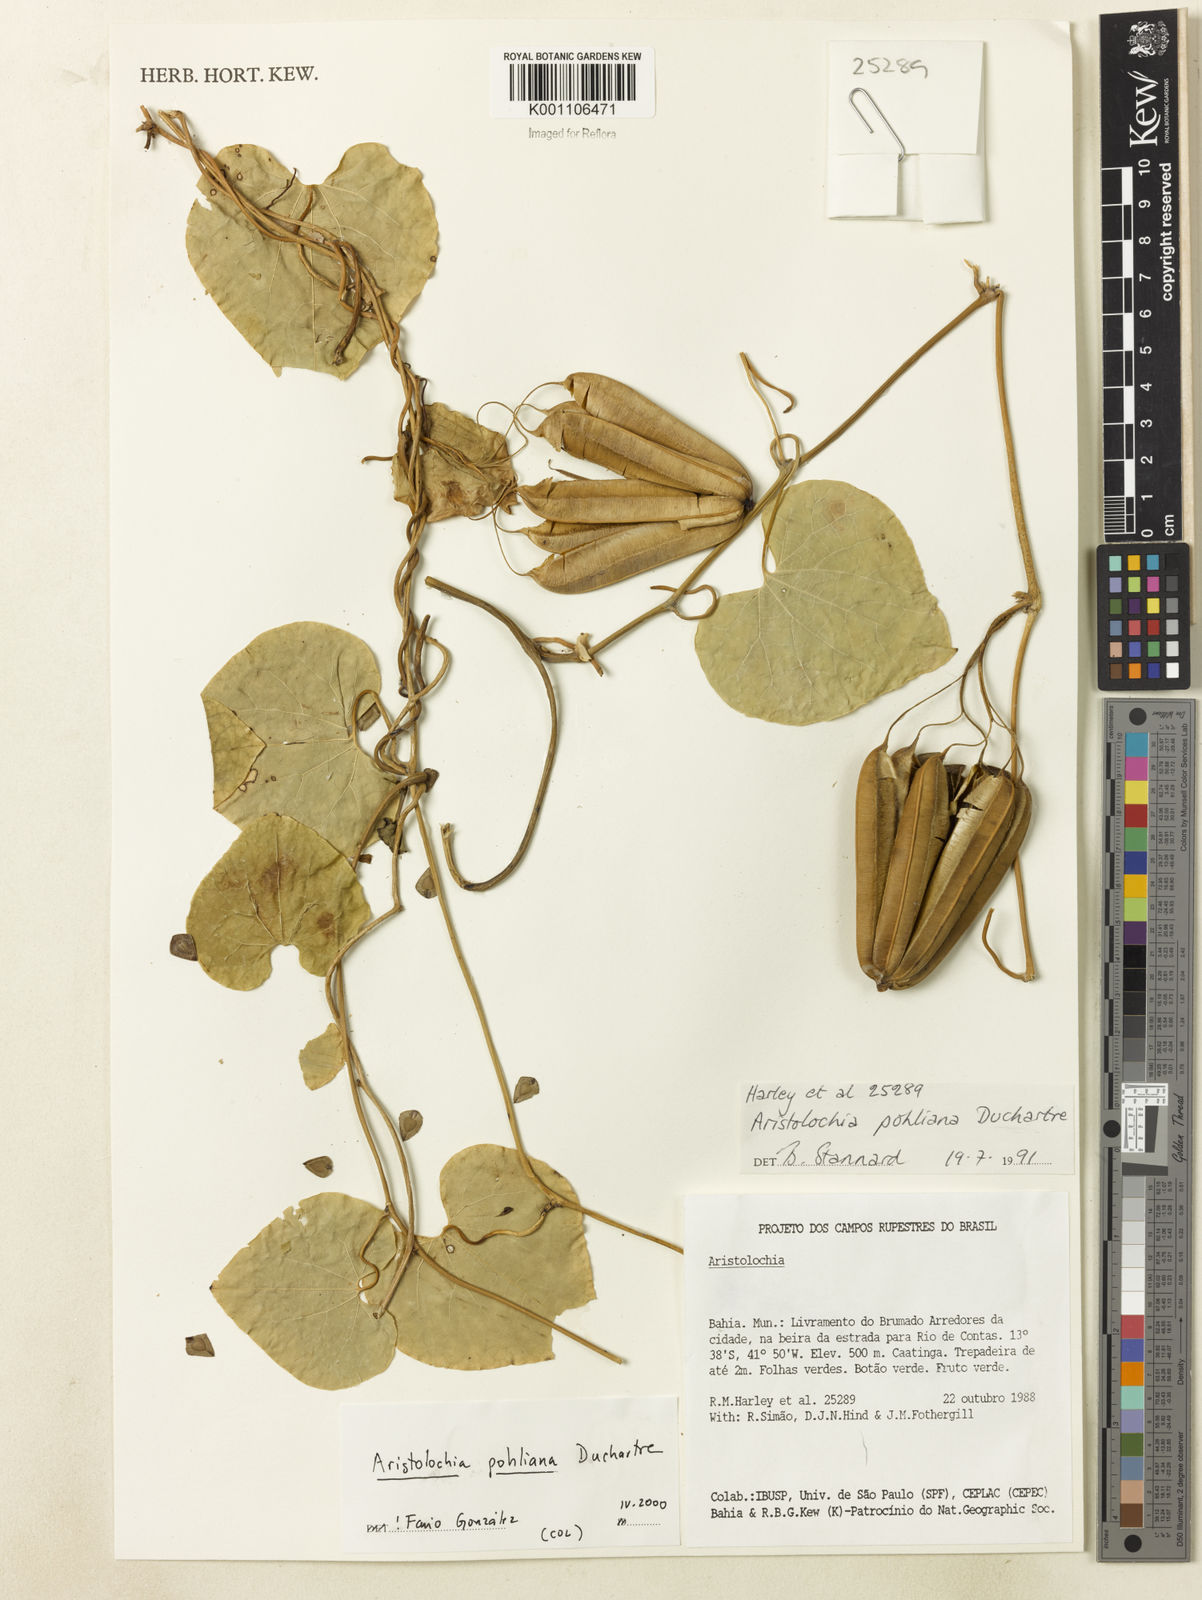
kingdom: Plantae
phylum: Tracheophyta
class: Magnoliopsida
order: Piperales
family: Aristolochiaceae
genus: Aristolochia
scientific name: Aristolochia pohliana
